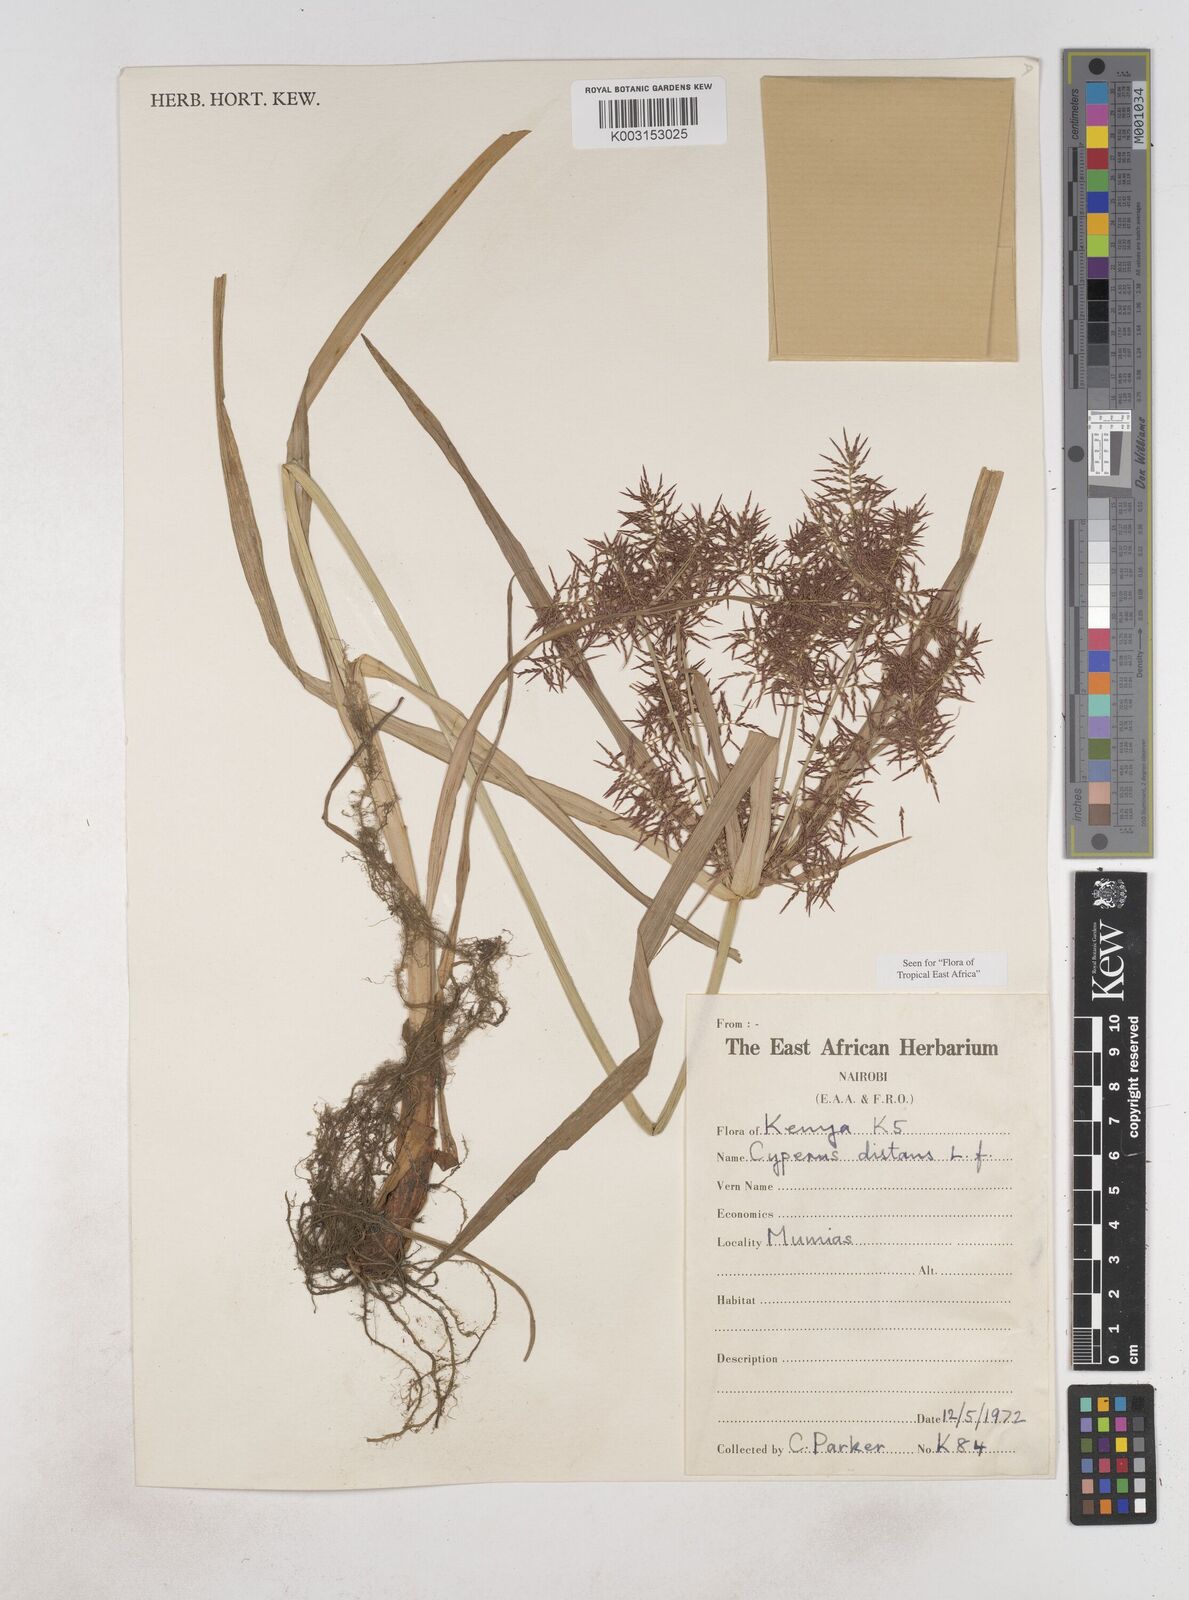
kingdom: Plantae
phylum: Tracheophyta
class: Liliopsida
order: Poales
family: Cyperaceae
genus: Cyperus
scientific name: Cyperus distans
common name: Slender cyperus
